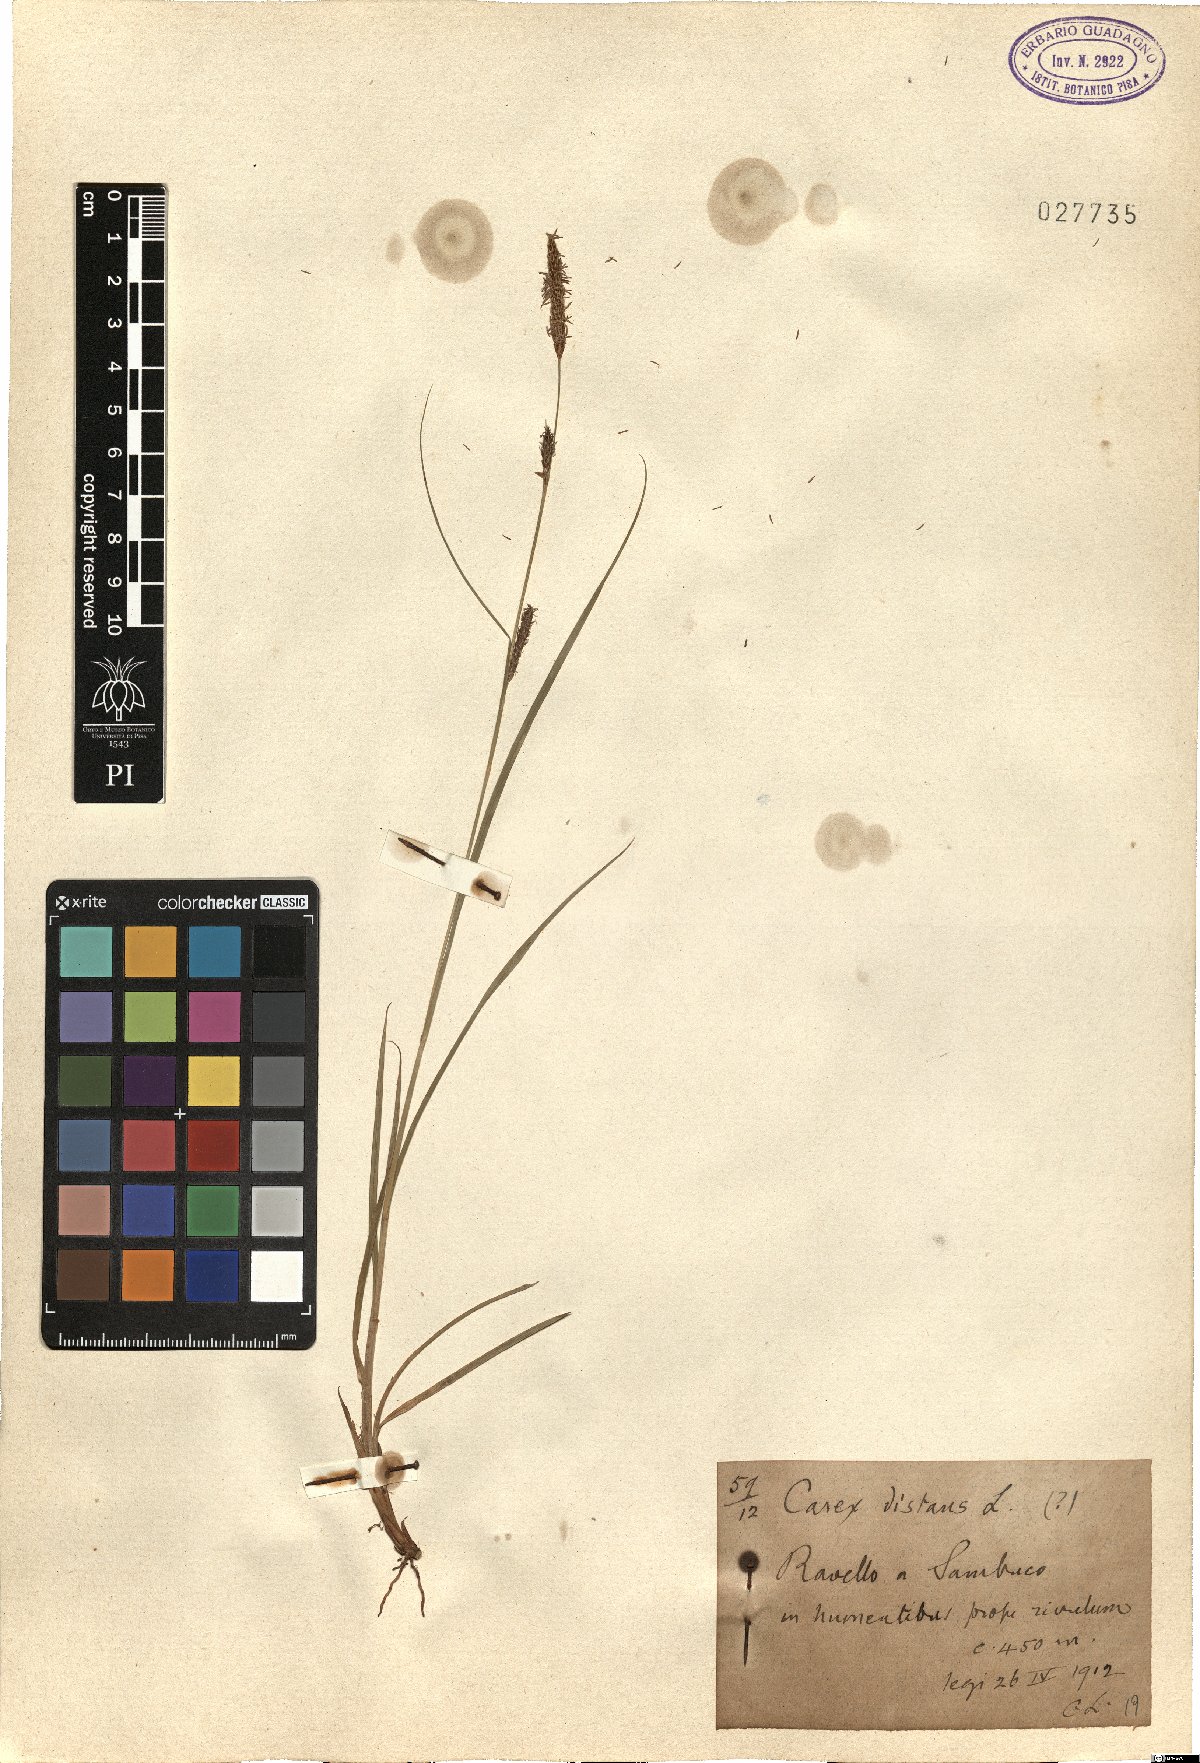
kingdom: Plantae
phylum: Tracheophyta
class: Liliopsida
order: Poales
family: Cyperaceae
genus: Carex
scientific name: Carex distans
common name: Distant sedge
